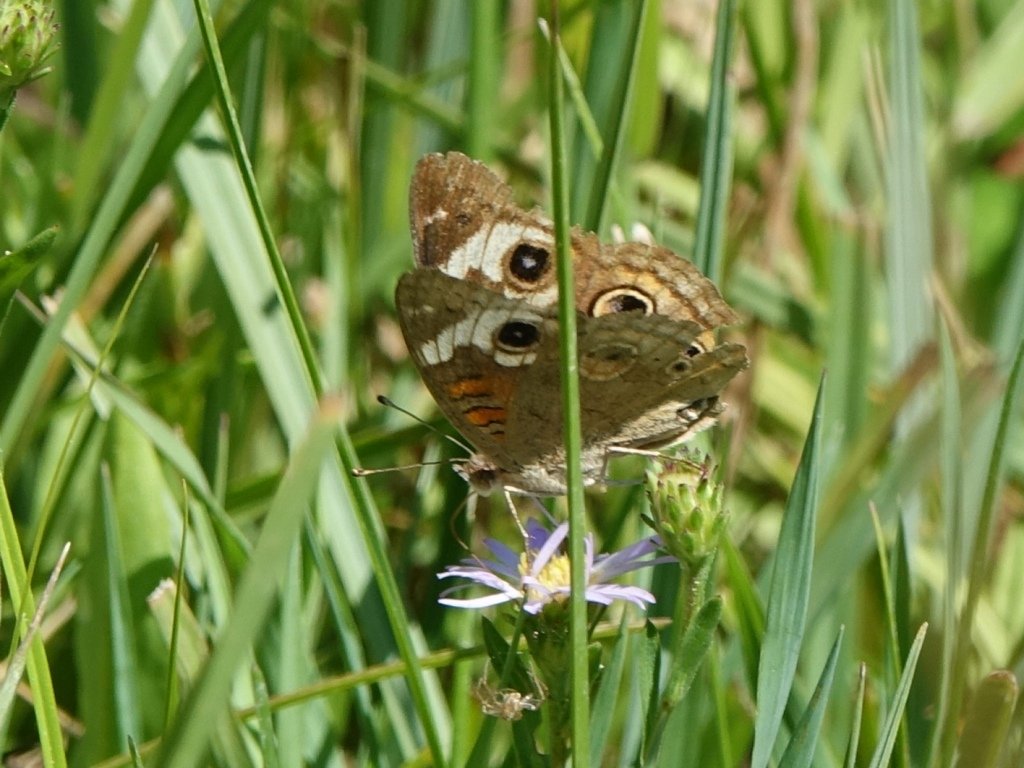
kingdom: Animalia
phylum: Arthropoda
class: Insecta
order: Lepidoptera
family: Nymphalidae
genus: Junonia
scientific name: Junonia coenia
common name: Common Buckeye
